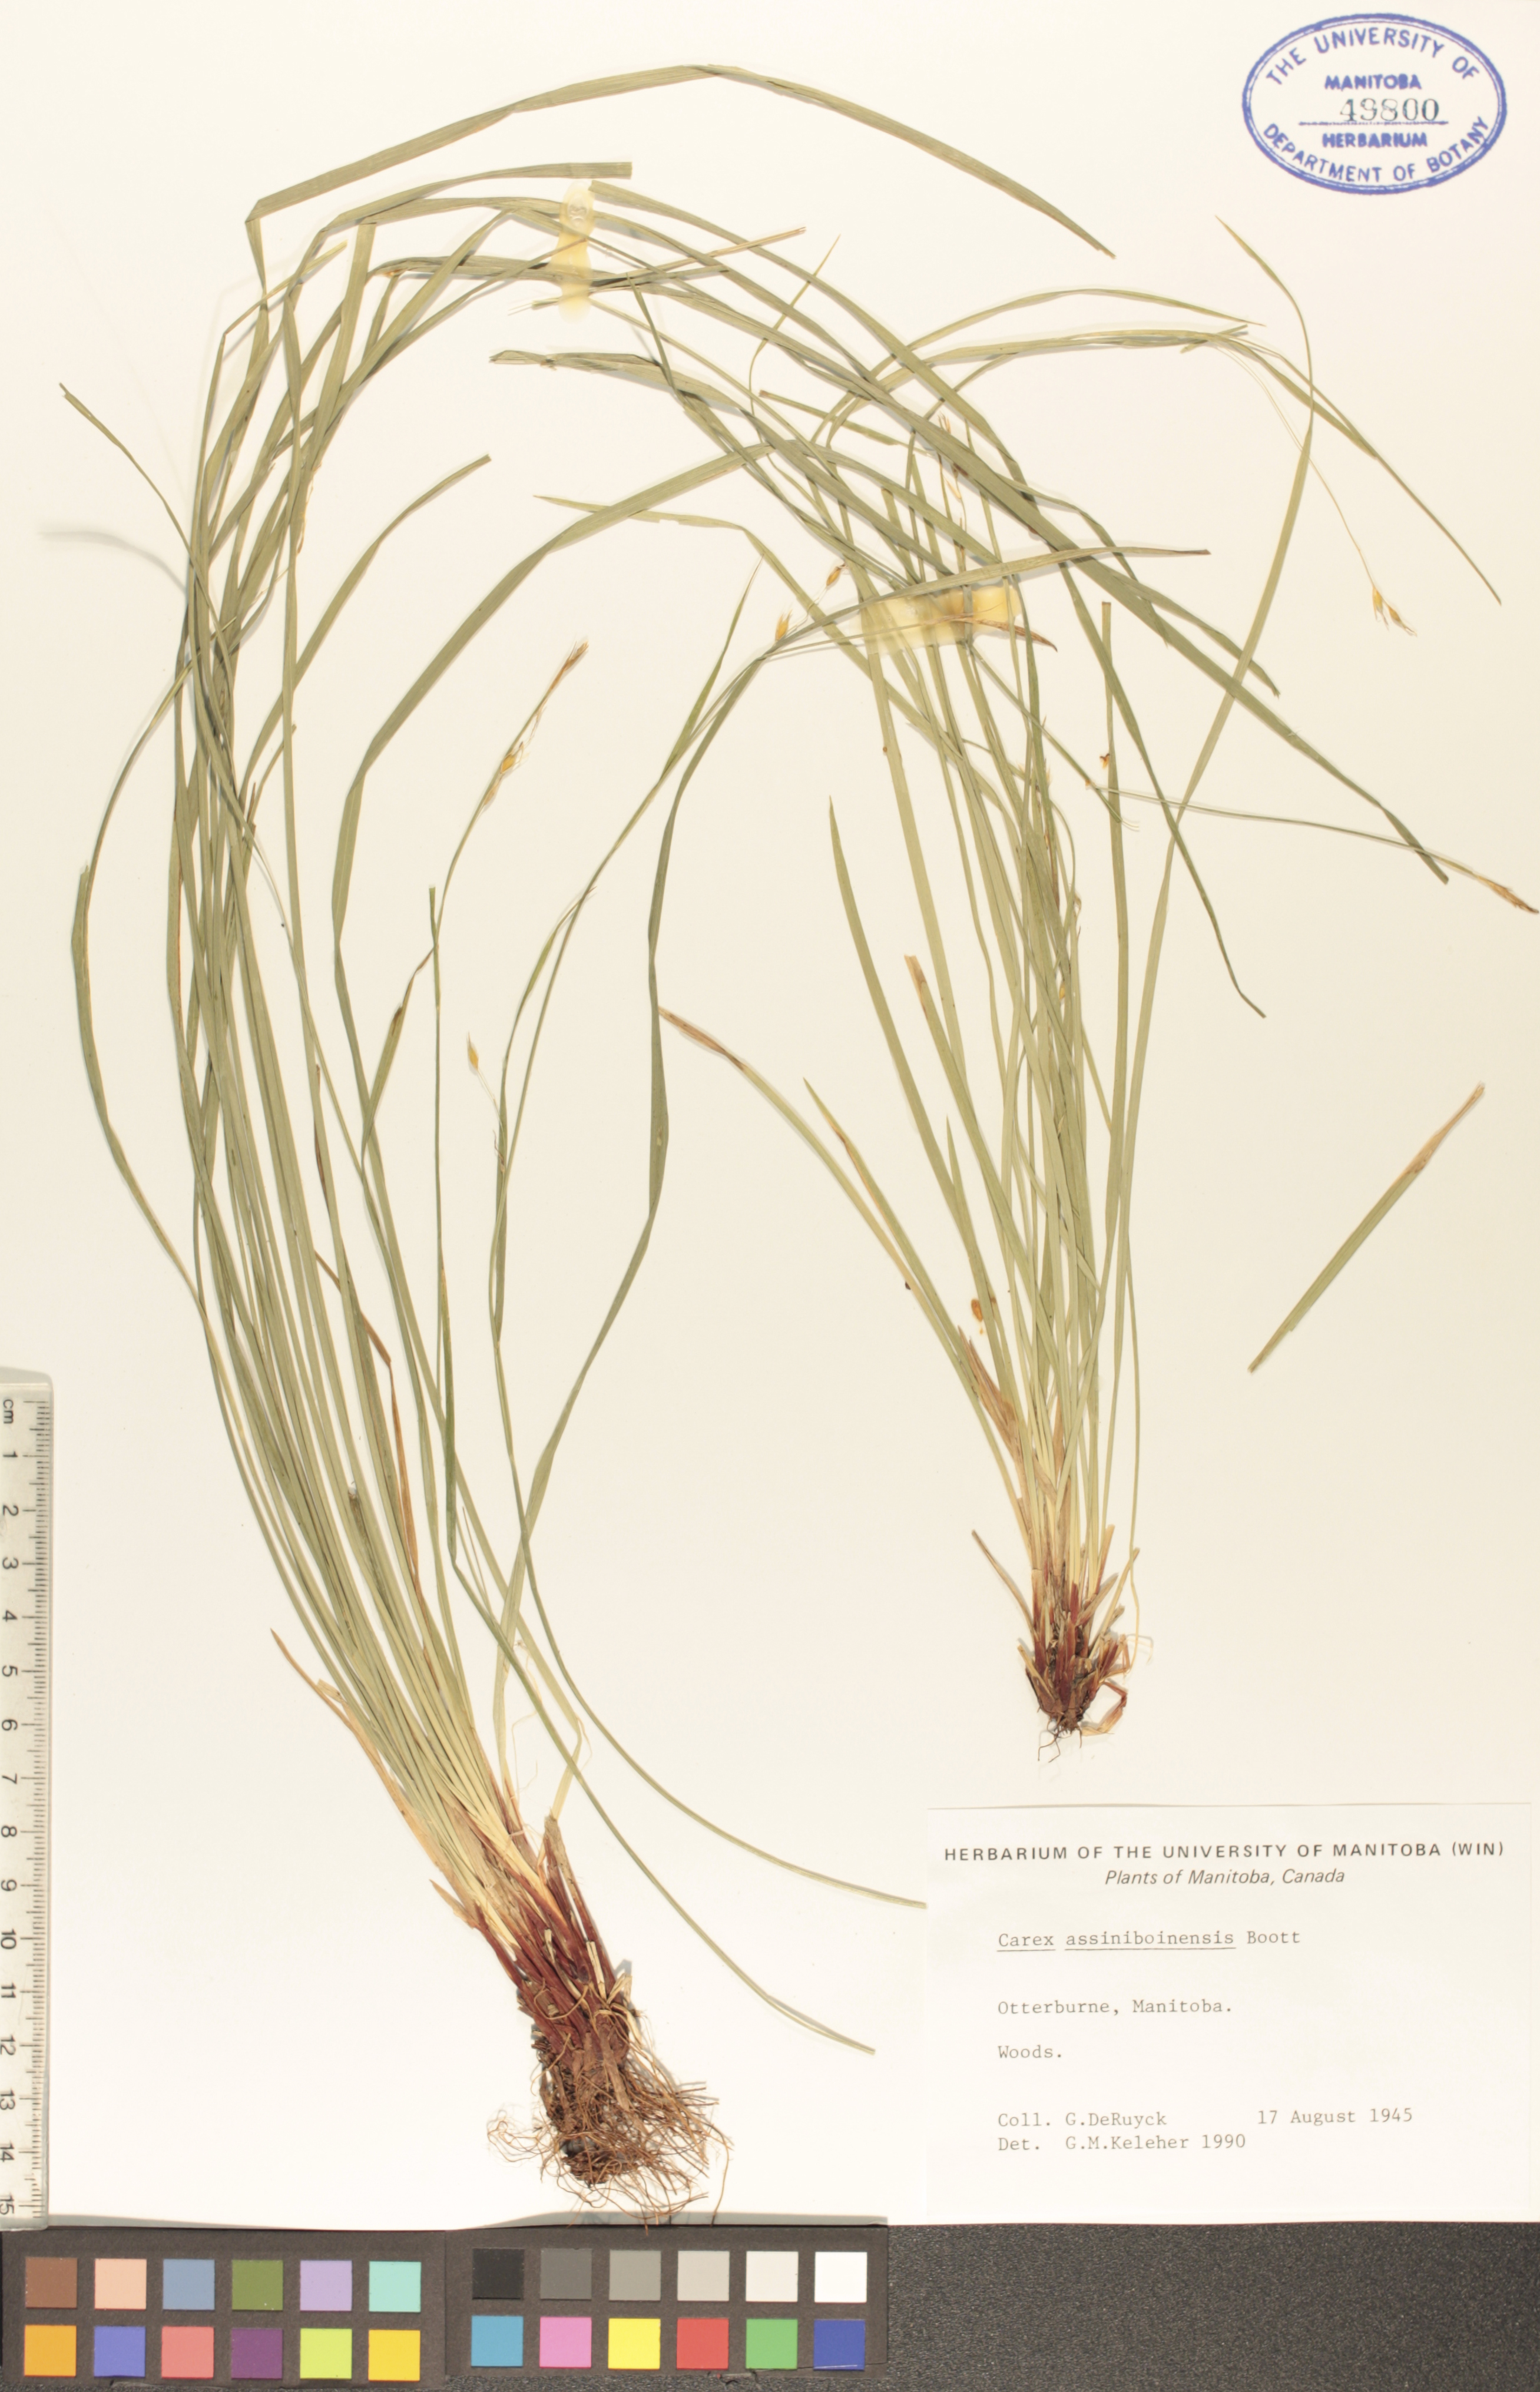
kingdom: Plantae
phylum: Tracheophyta
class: Liliopsida
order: Poales
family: Cyperaceae
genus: Carex
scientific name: Carex assiniboinensis
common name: Assiniboia sedge
